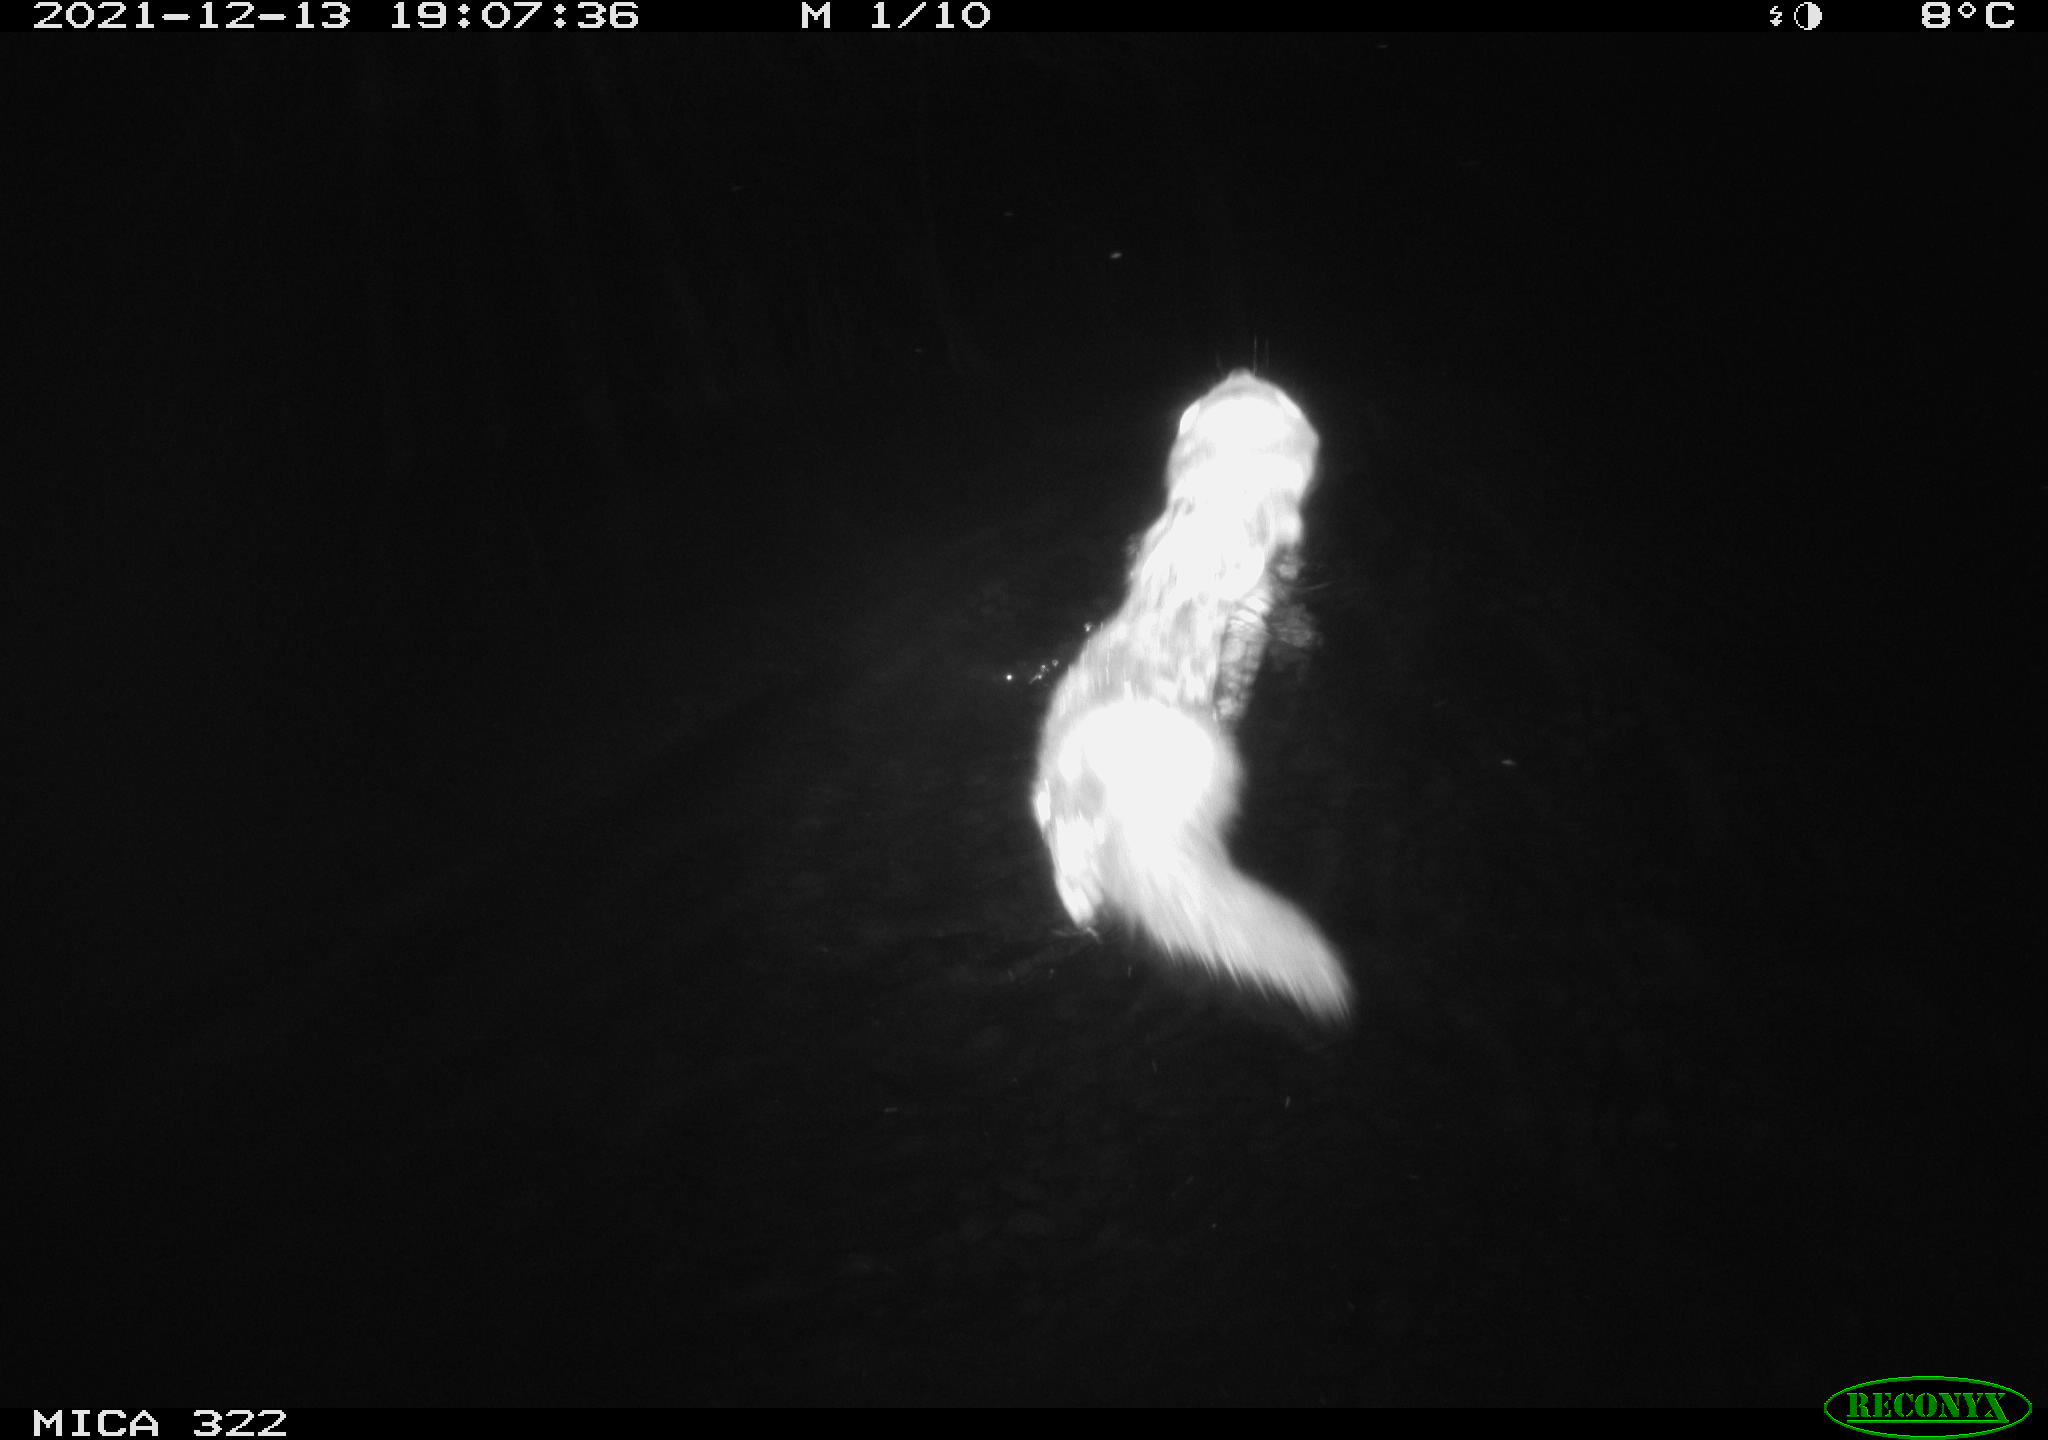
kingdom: Animalia
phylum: Chordata
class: Mammalia
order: Carnivora
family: Mustelidae
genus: Mustela
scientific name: Mustela putorius
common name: European polecat
